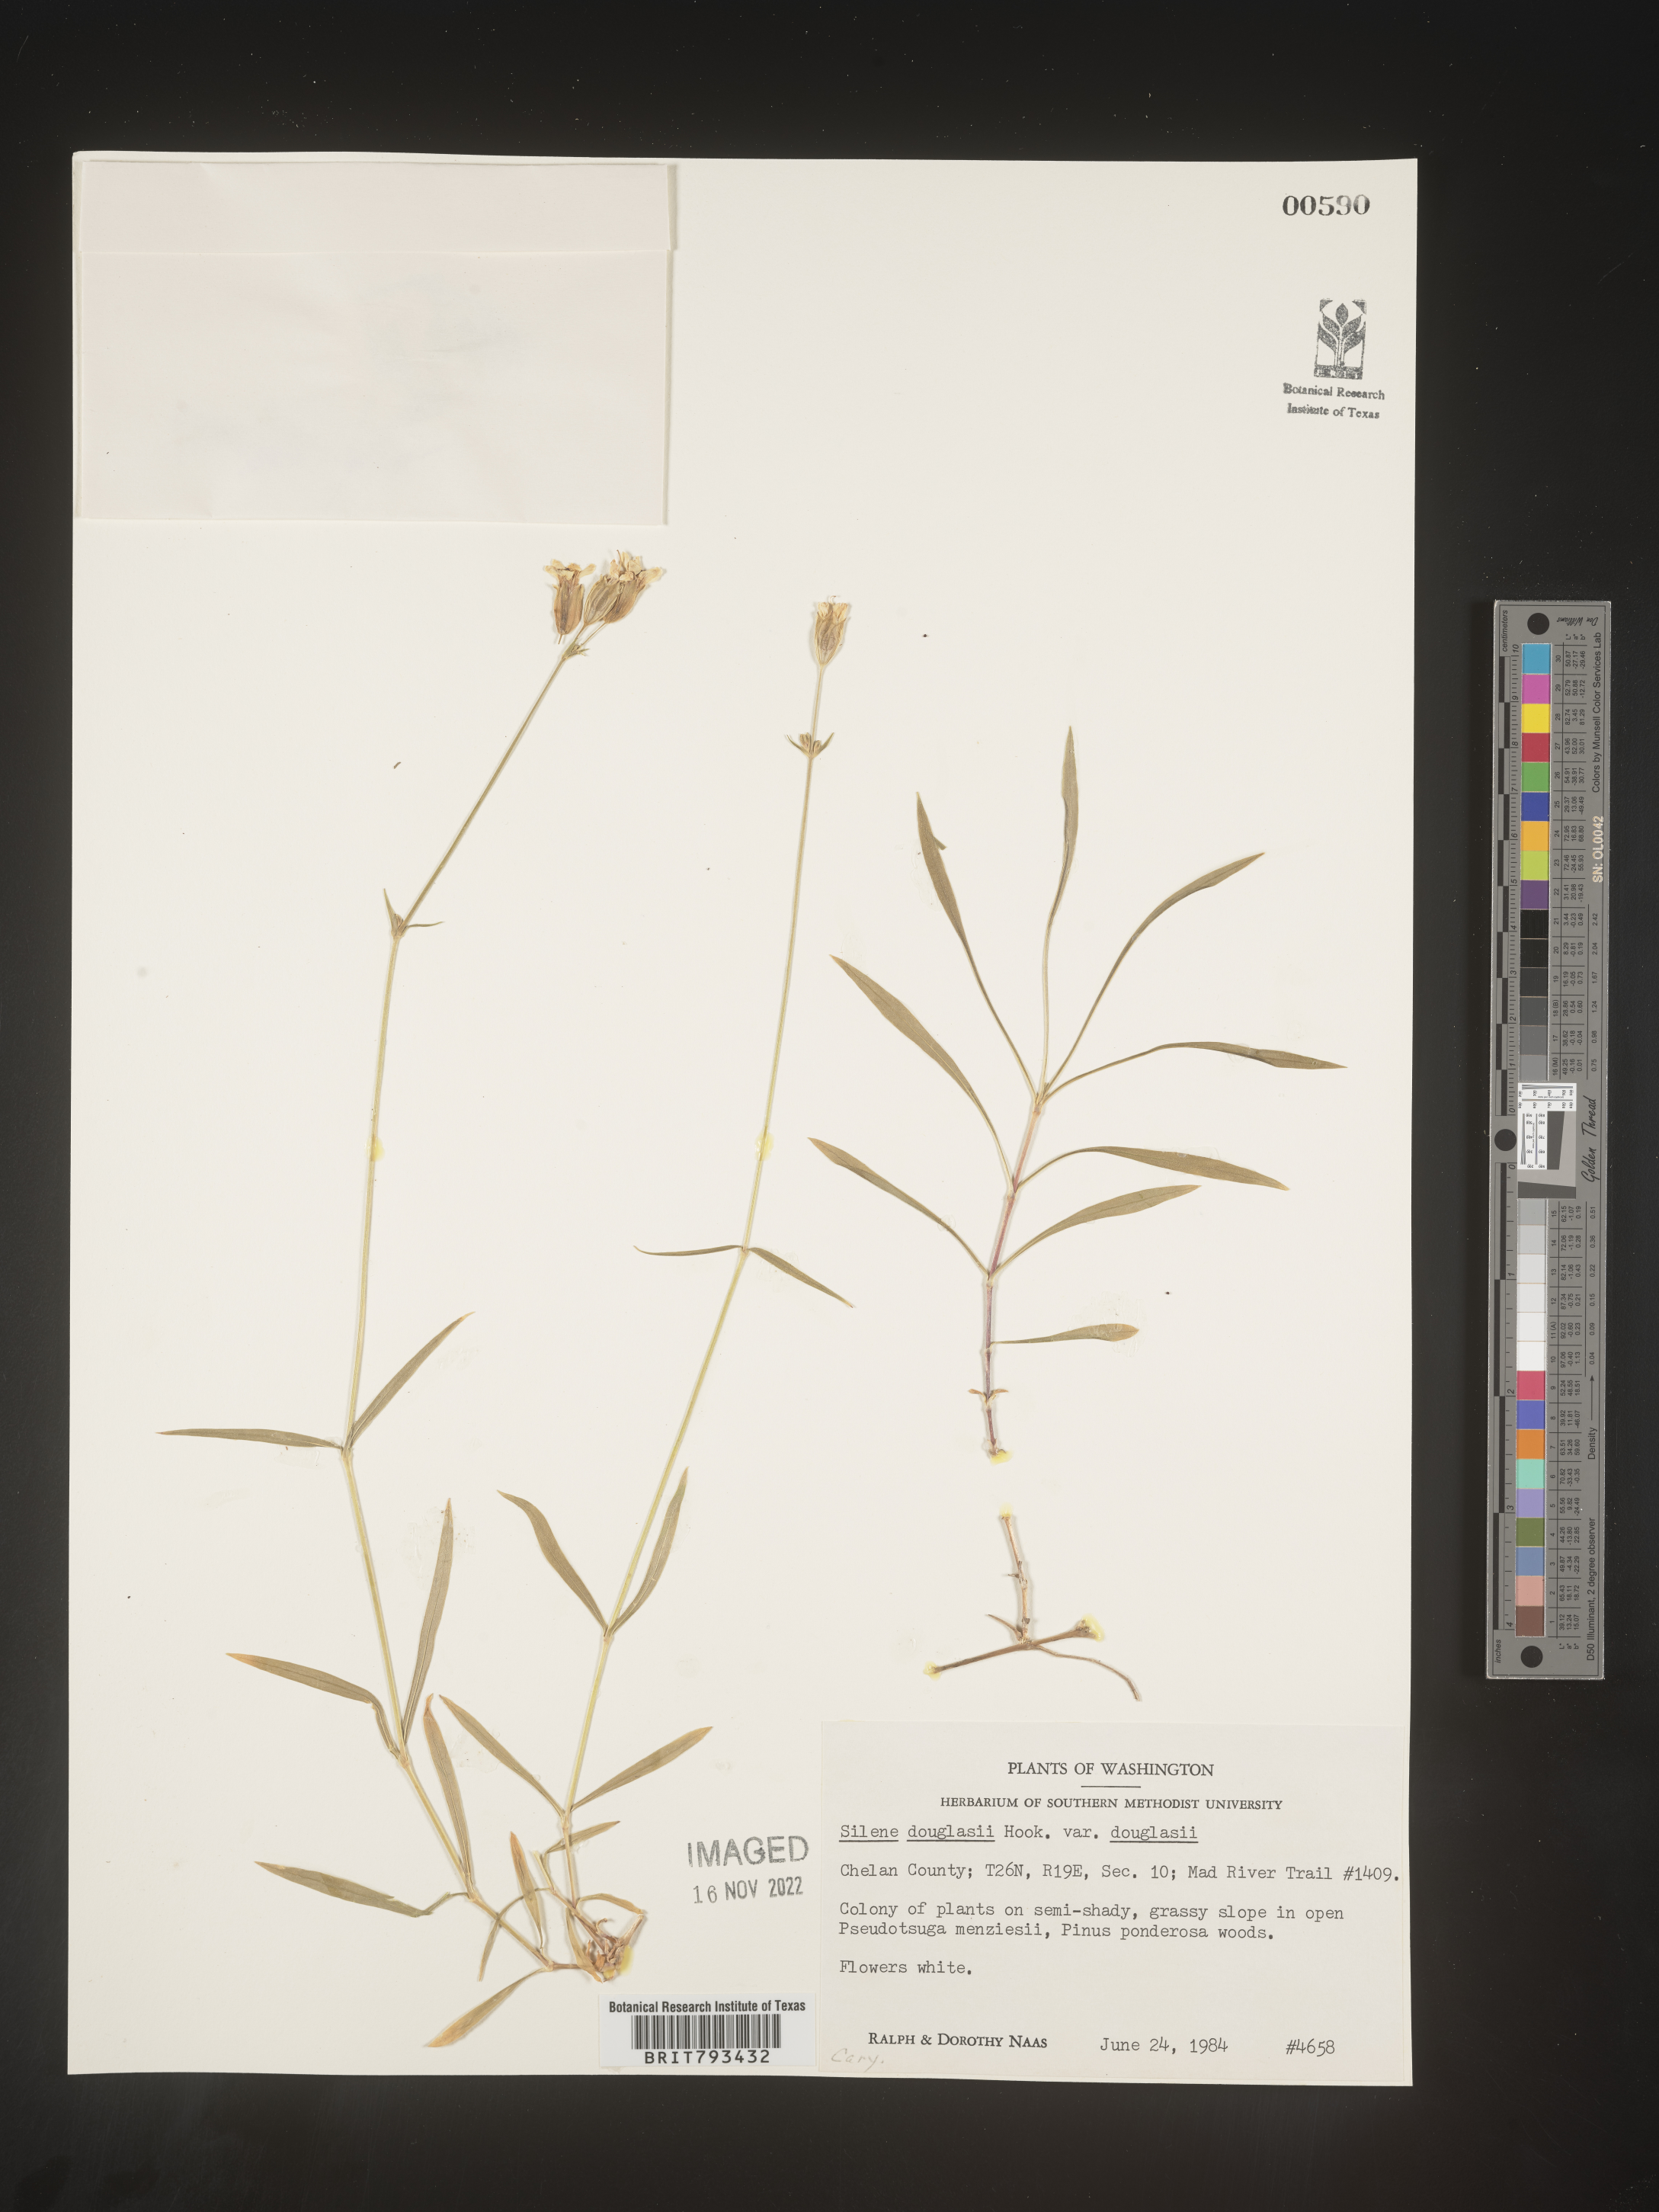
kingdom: Plantae
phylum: Tracheophyta
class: Magnoliopsida
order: Caryophyllales
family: Caryophyllaceae
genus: Silene
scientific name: Silene douglasii
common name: Douglas's catchfly
